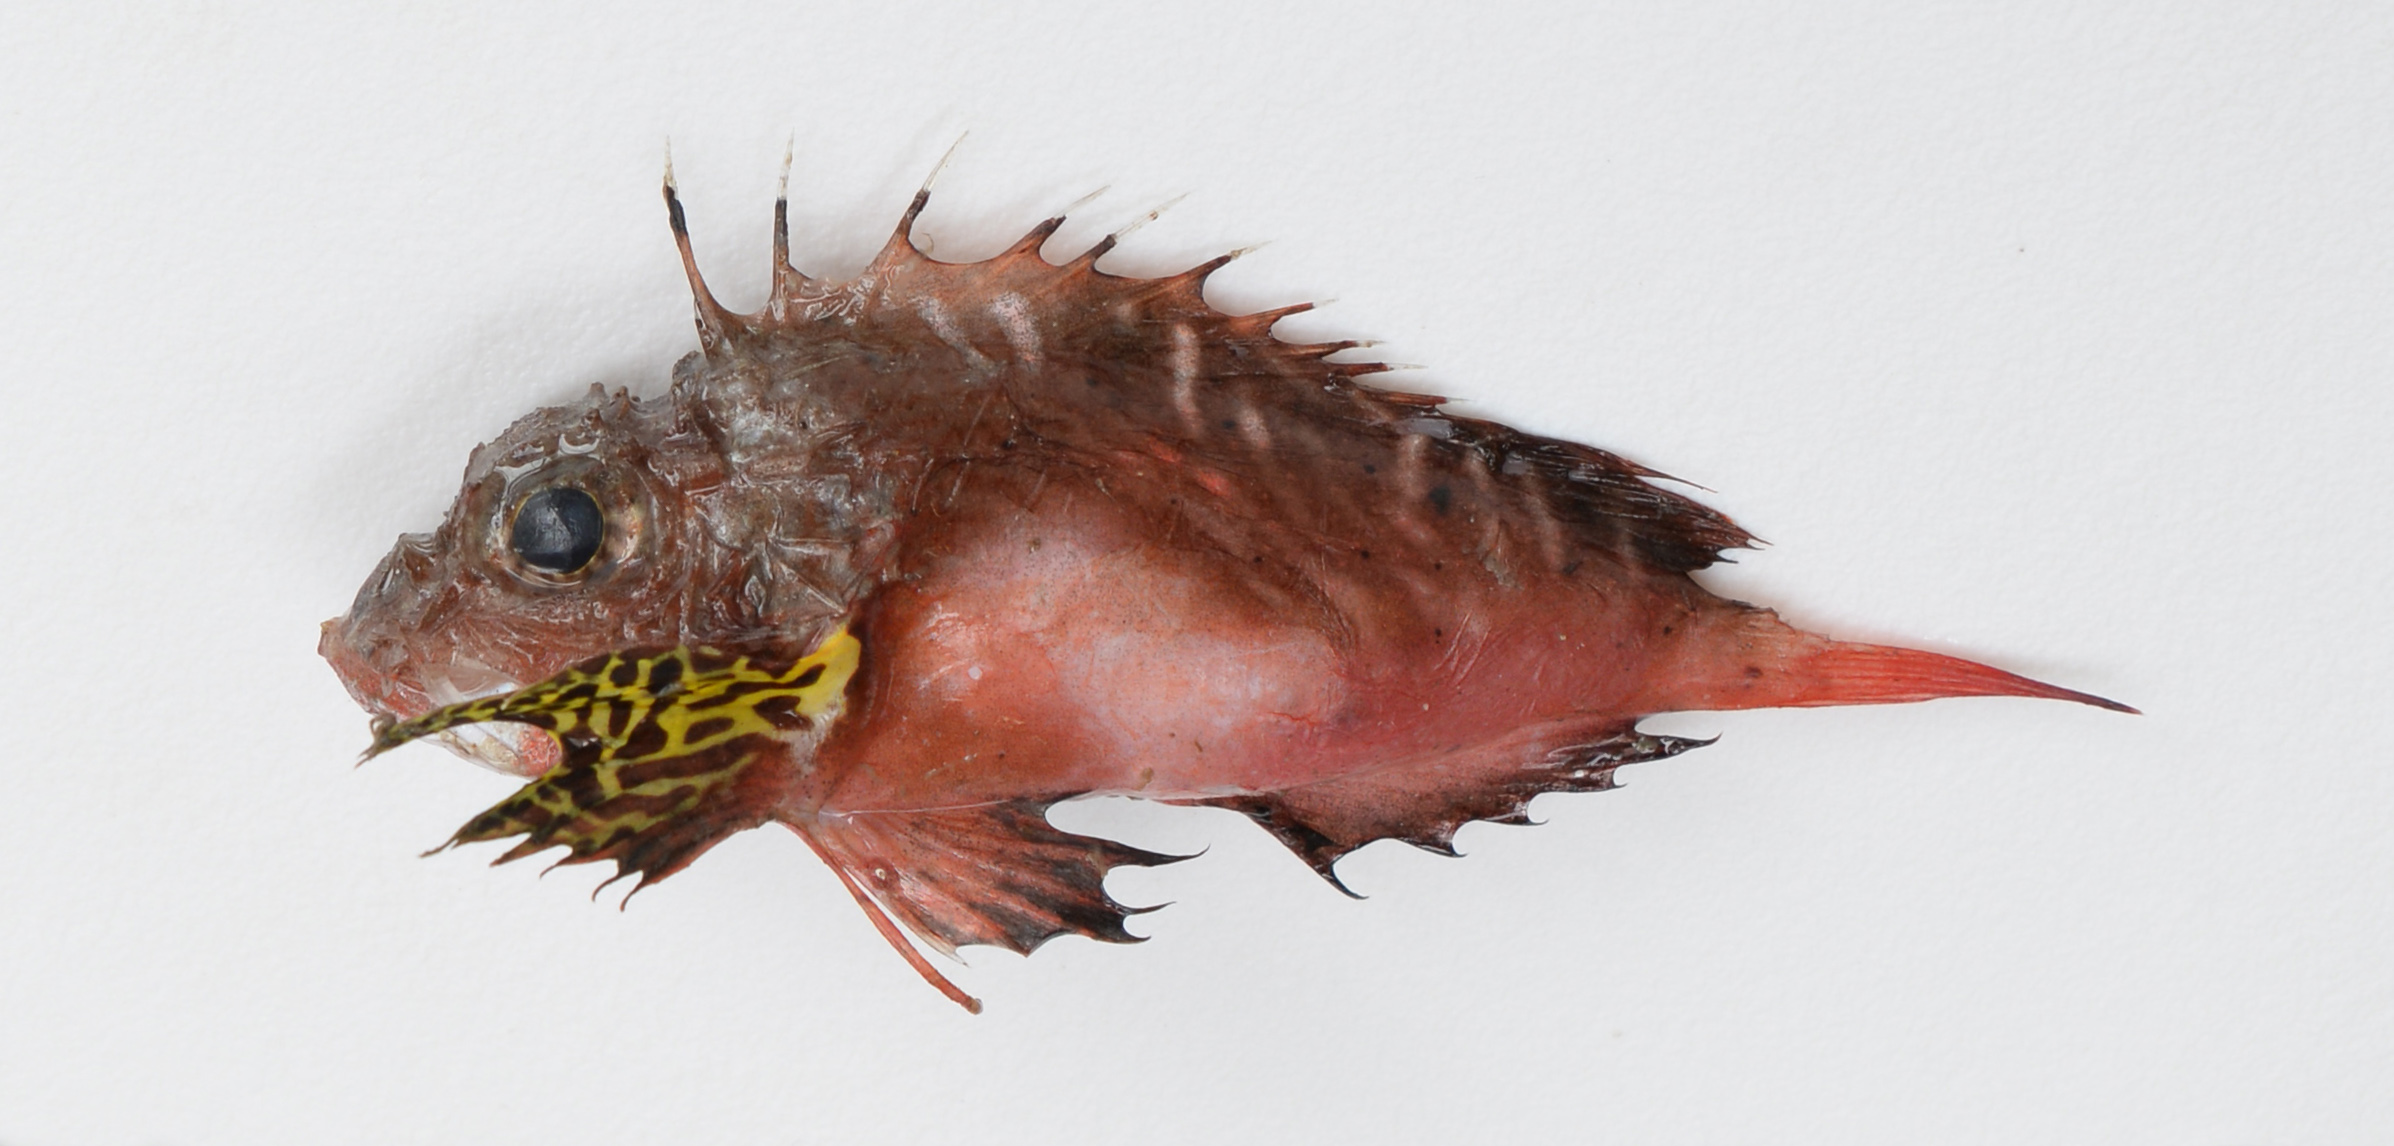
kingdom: Animalia
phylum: Chordata
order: Scorpaeniformes
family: Synanceiidae
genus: Minous
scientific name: Minous coccineus
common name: Onestick stingfish
